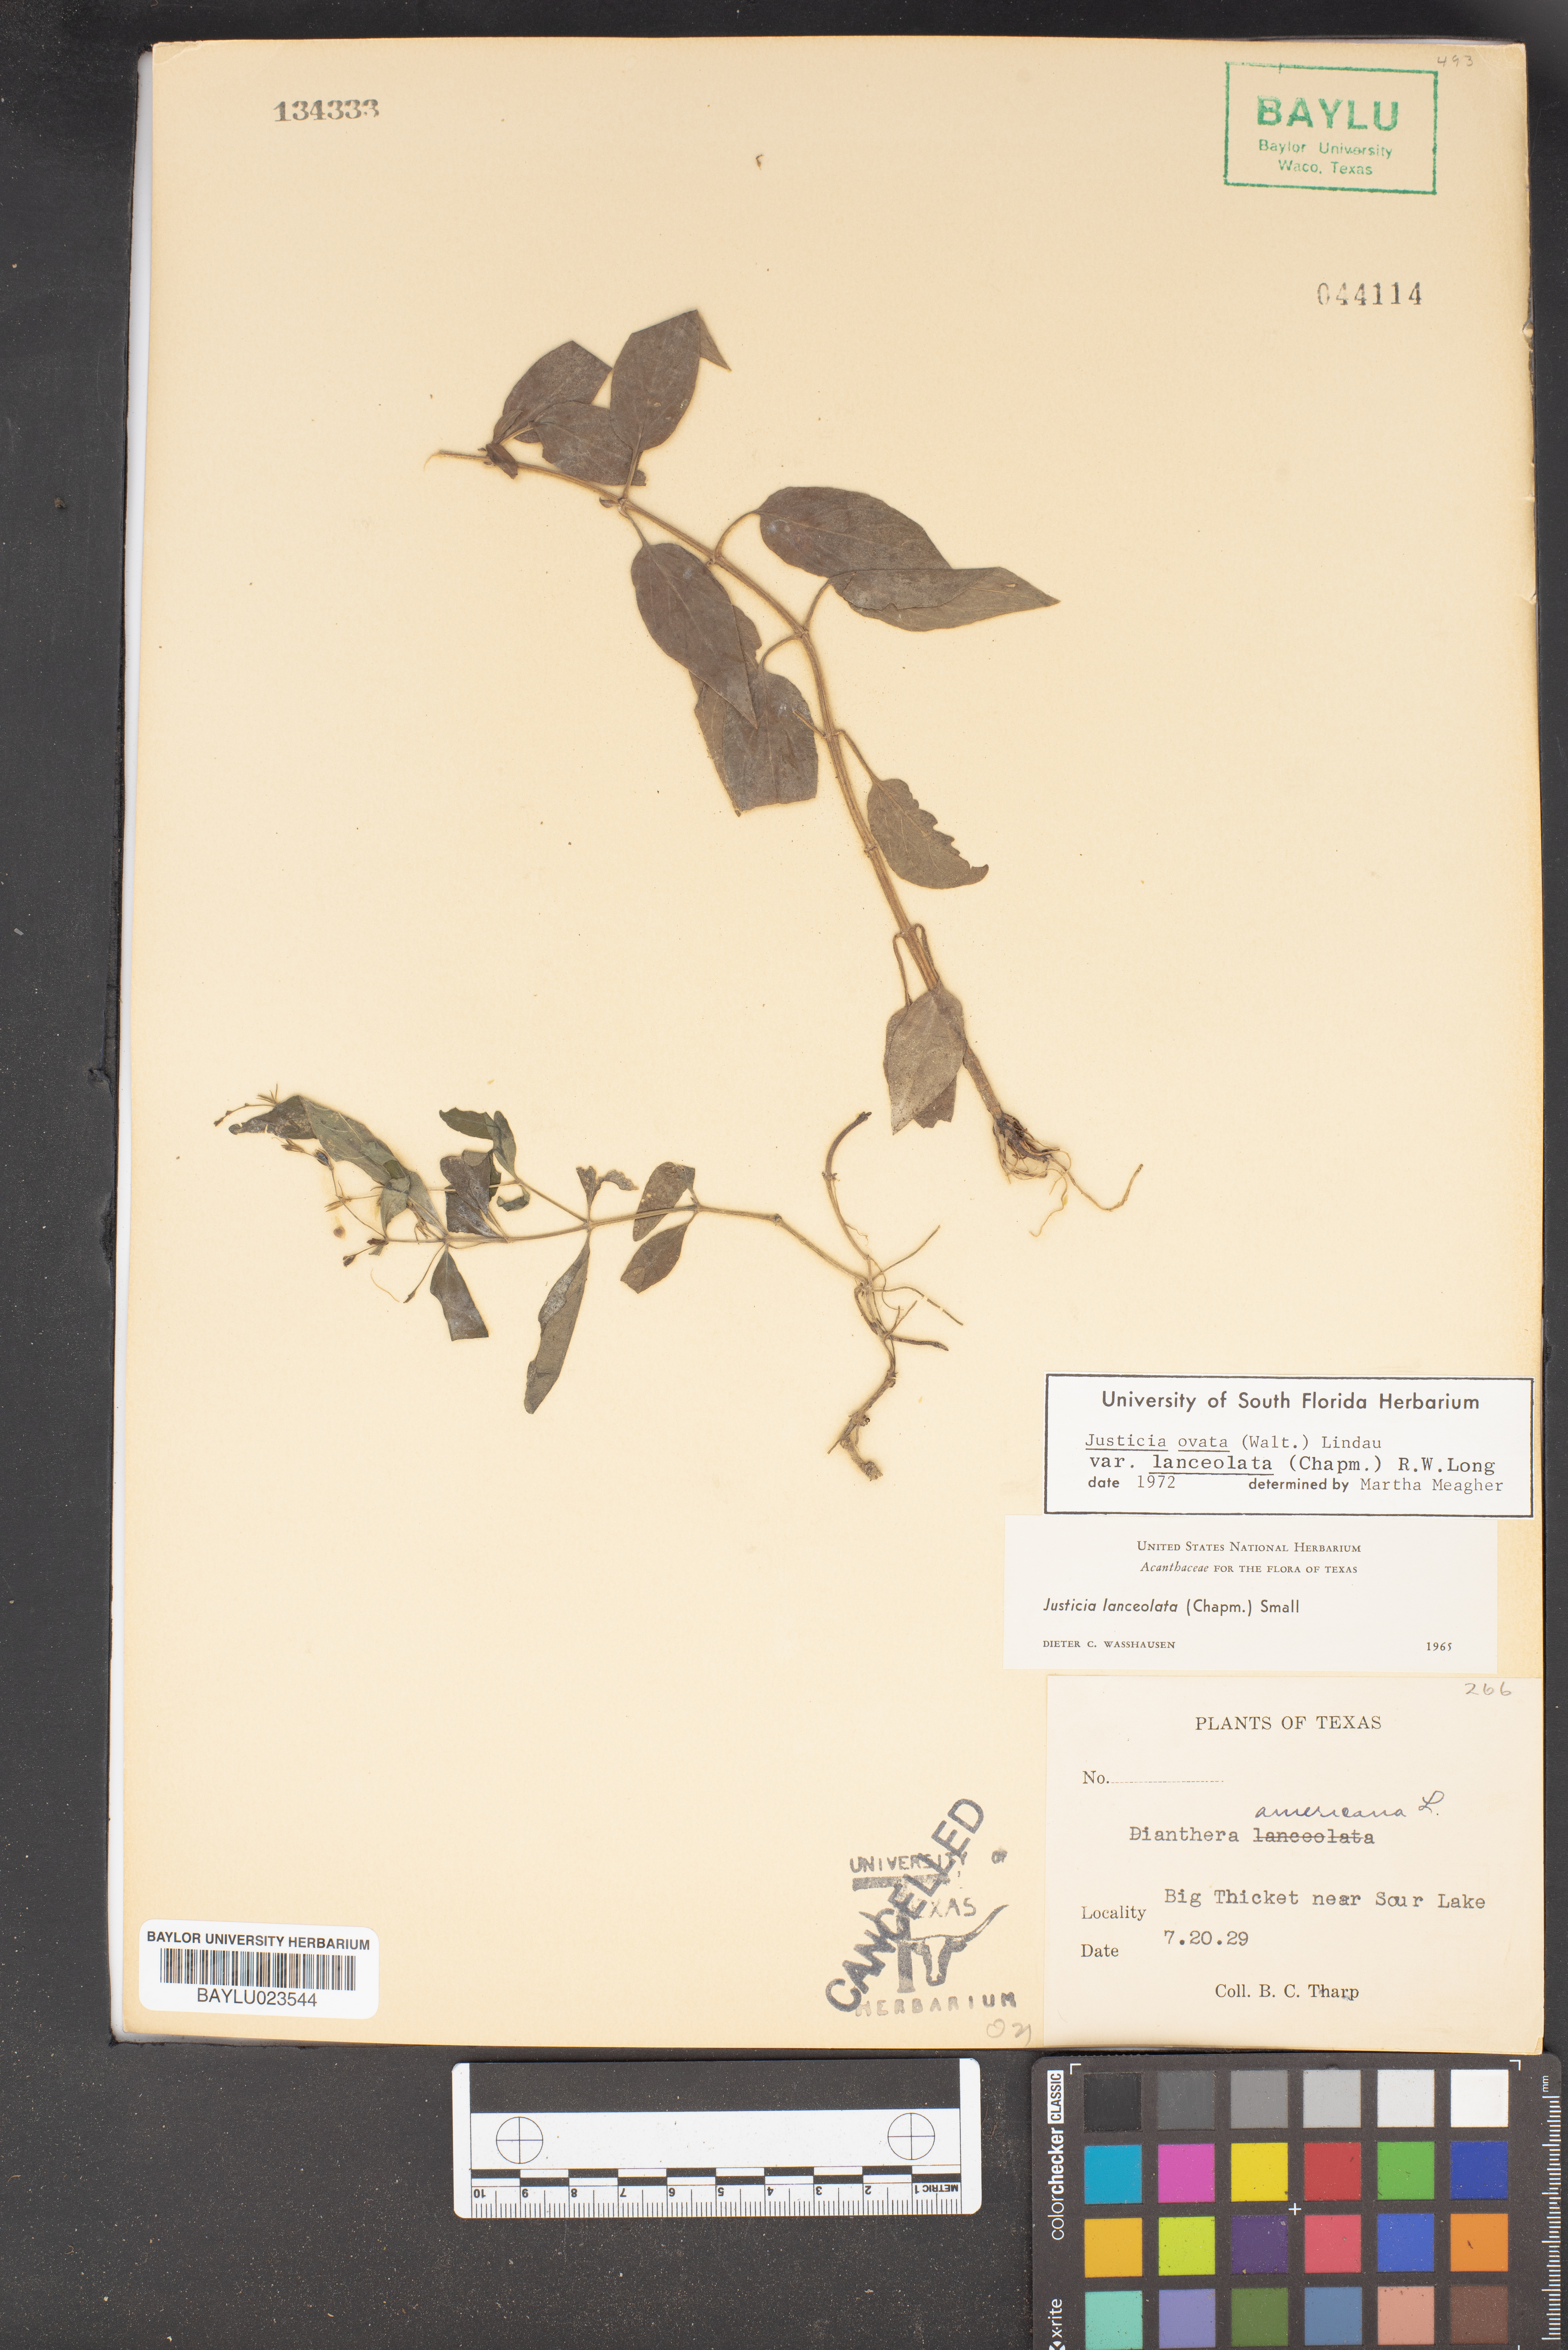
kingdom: Plantae
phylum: Tracheophyta
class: Magnoliopsida
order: Lamiales
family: Acanthaceae
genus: Rostellularia
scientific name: Rostellularia procumbens
